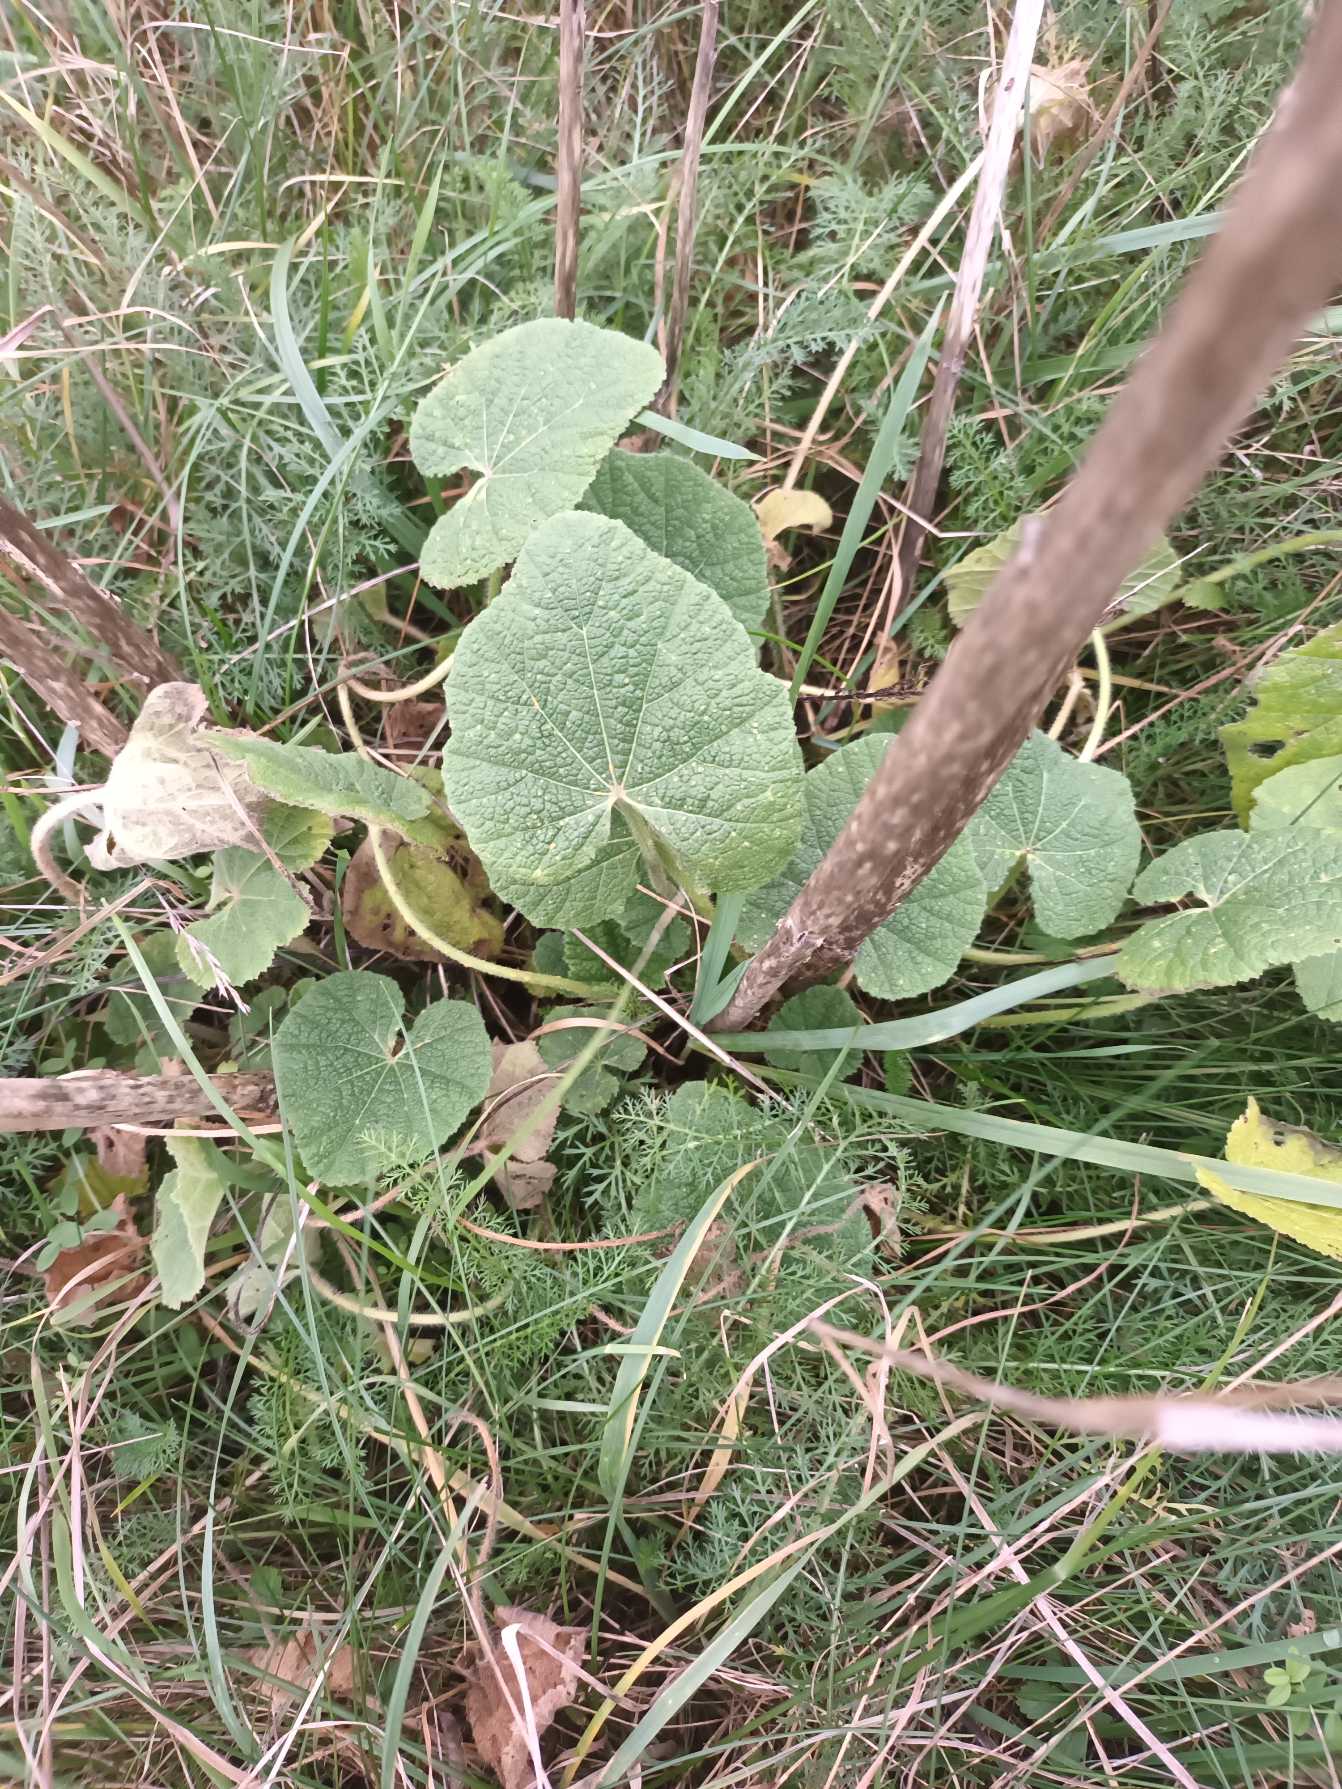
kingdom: Plantae
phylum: Tracheophyta
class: Magnoliopsida
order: Malvales
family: Malvaceae
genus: Alcea
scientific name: Alcea rosea
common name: Have-stokrose
